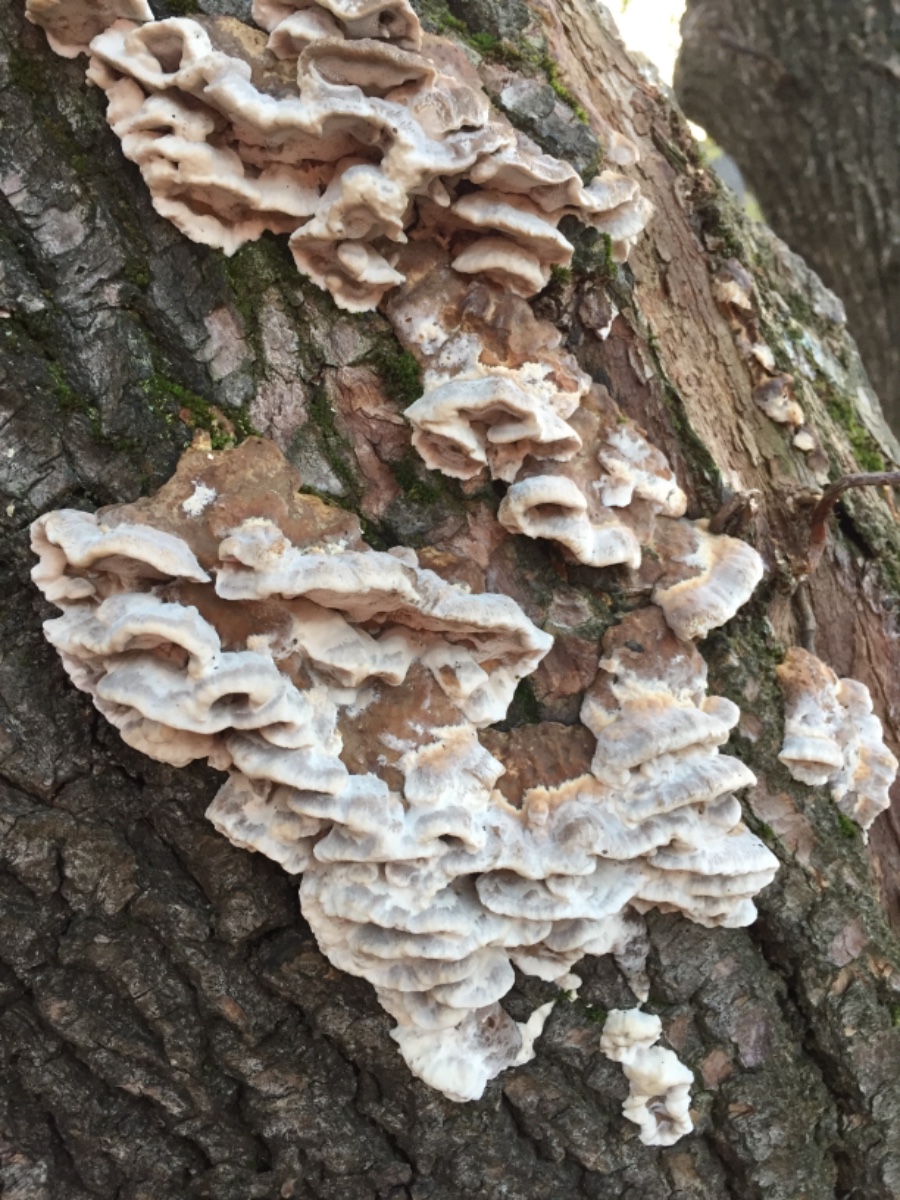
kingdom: Fungi
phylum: Basidiomycota
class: Agaricomycetes
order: Polyporales
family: Phanerochaetaceae
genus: Bjerkandera
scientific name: Bjerkandera fumosa
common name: grågul sodporesvamp
